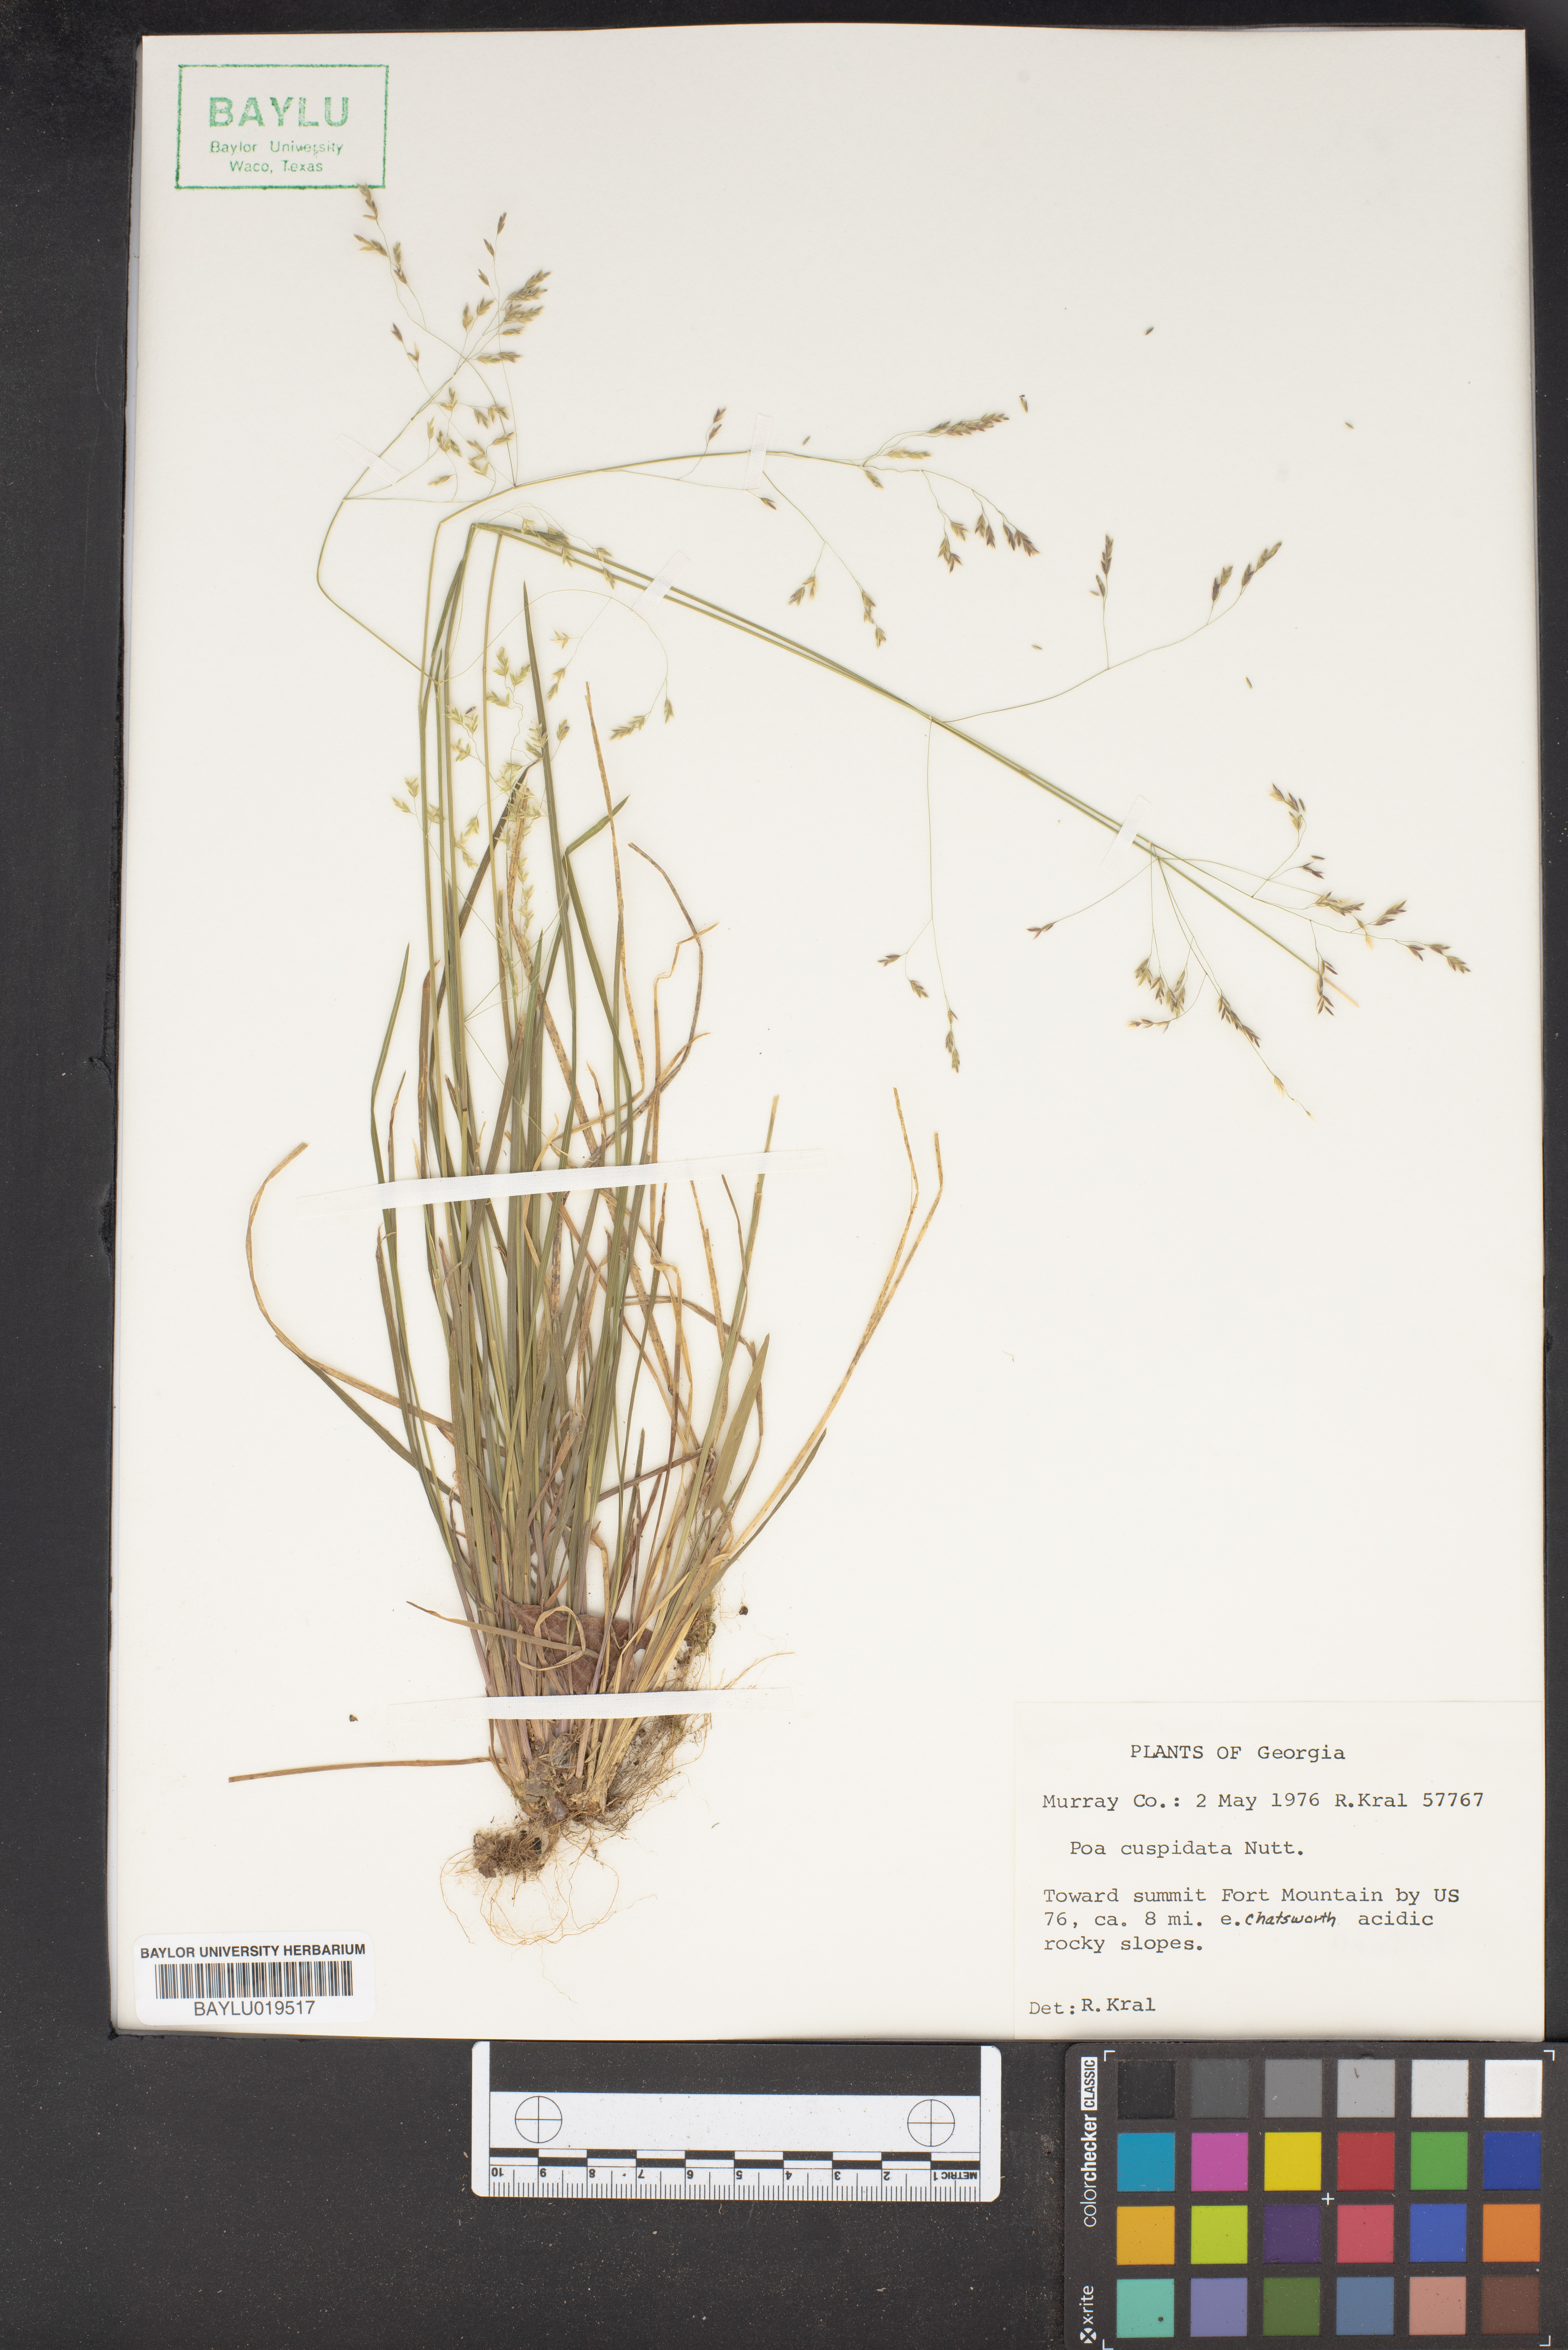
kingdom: Plantae
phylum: Tracheophyta
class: Liliopsida
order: Poales
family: Poaceae
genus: Poa
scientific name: Poa cuspidata
